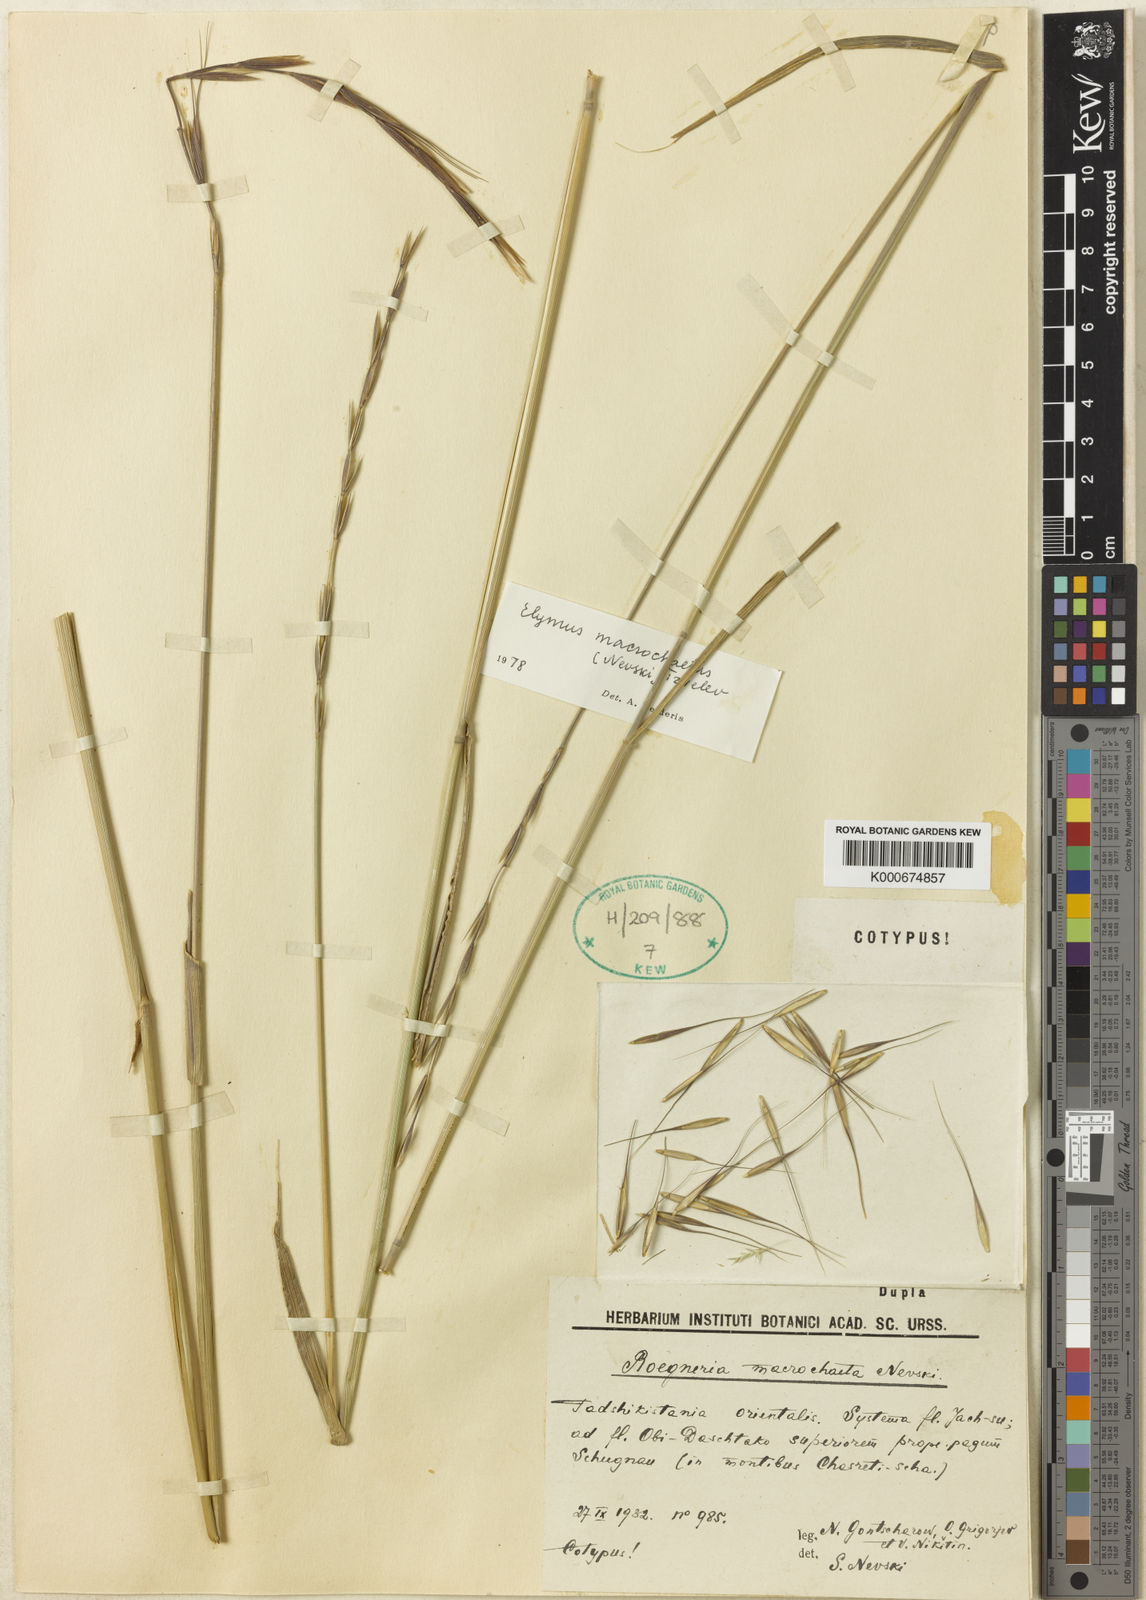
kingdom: Plantae
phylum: Tracheophyta
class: Liliopsida
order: Poales
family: Poaceae
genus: Elymus
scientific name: Elymus macrochaetus
